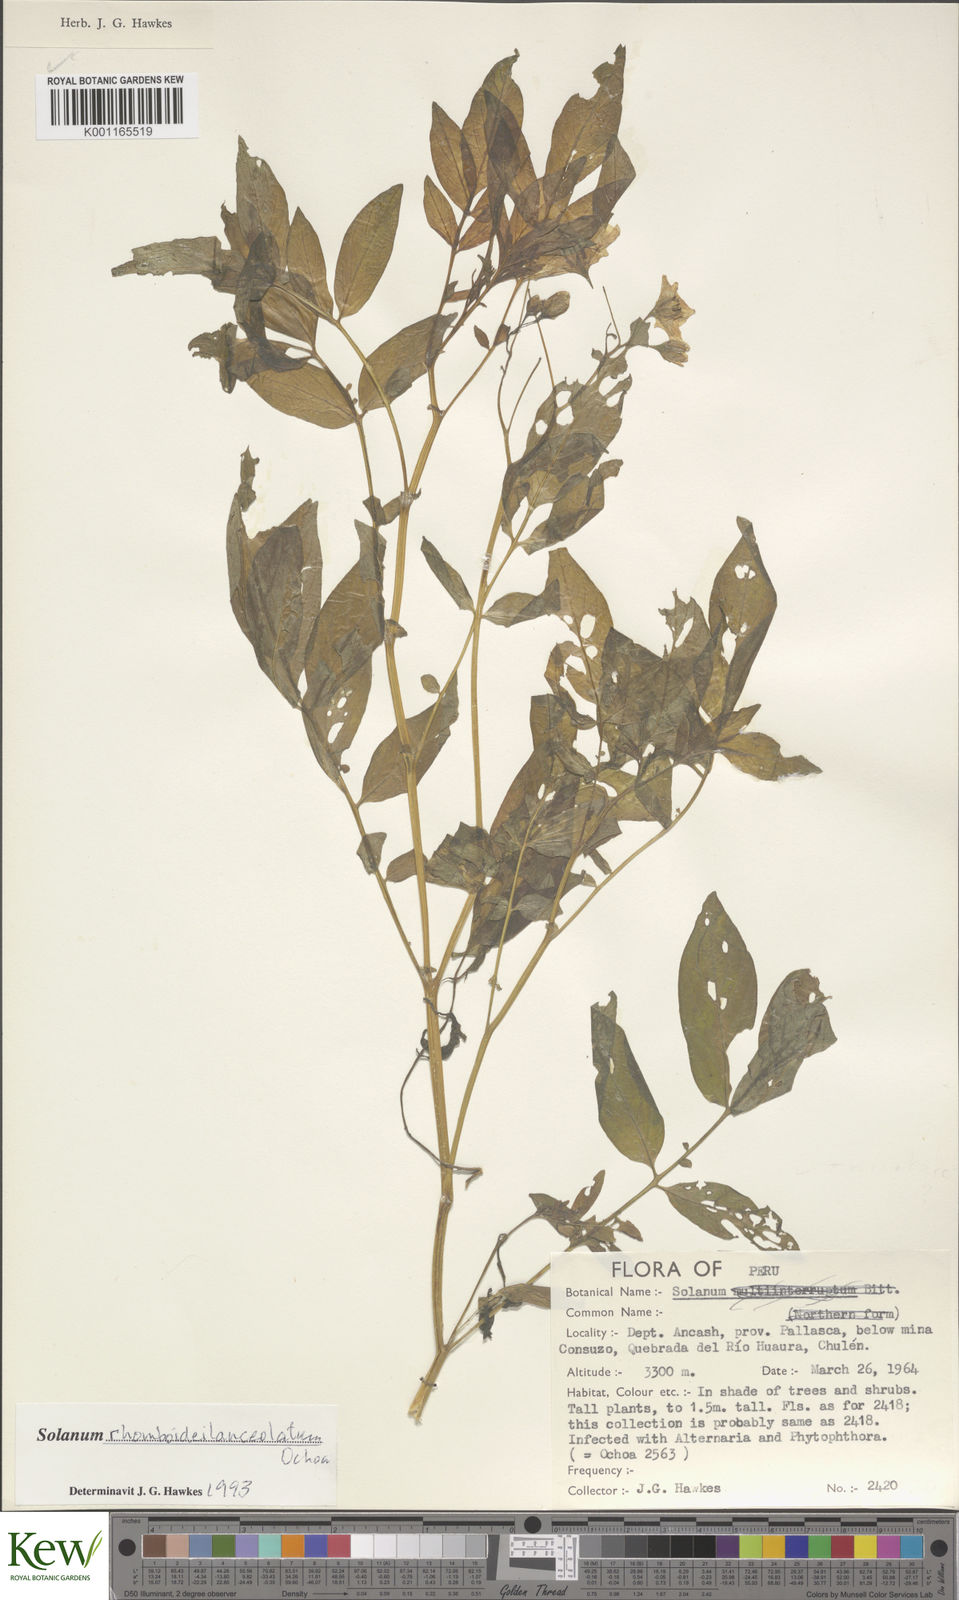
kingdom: Plantae
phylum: Tracheophyta
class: Magnoliopsida
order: Solanales
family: Solanaceae
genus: Solanum
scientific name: Solanum rhomboideilanceolatum
